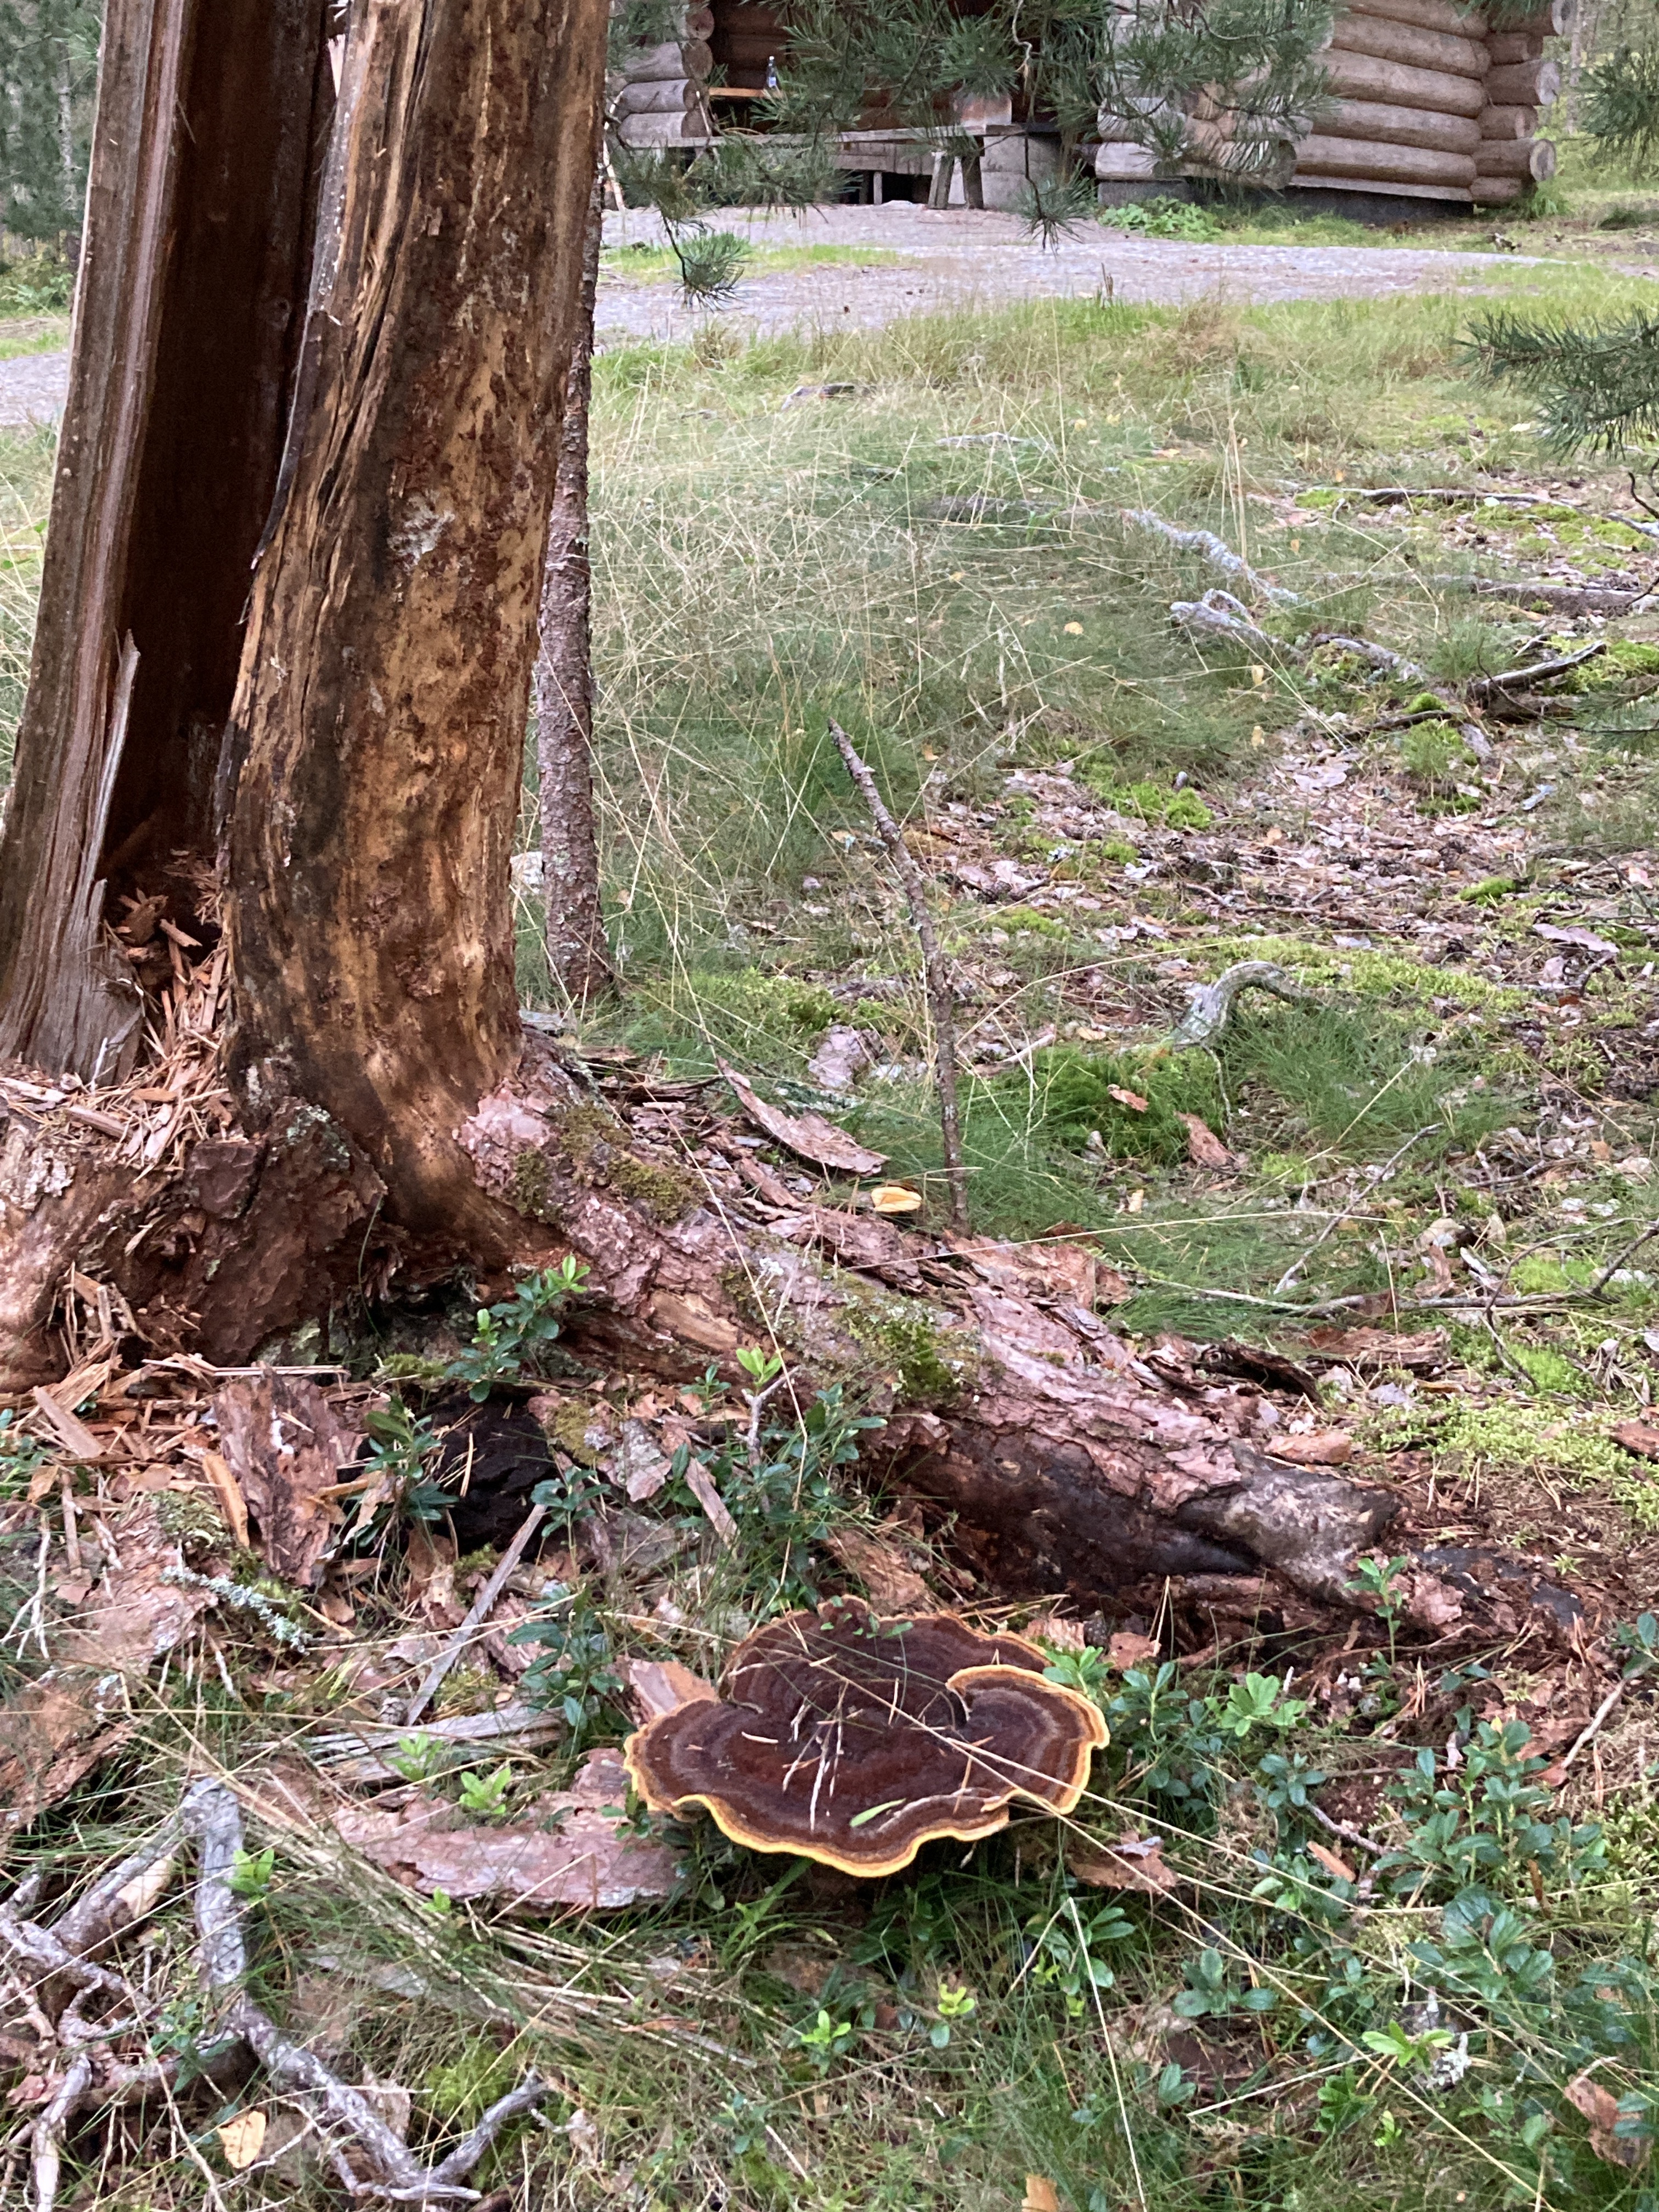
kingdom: Fungi
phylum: Basidiomycota
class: Agaricomycetes
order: Polyporales
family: Laetiporaceae
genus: Phaeolus
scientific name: Phaeolus schweinitzii
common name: Dyer's mazegill
